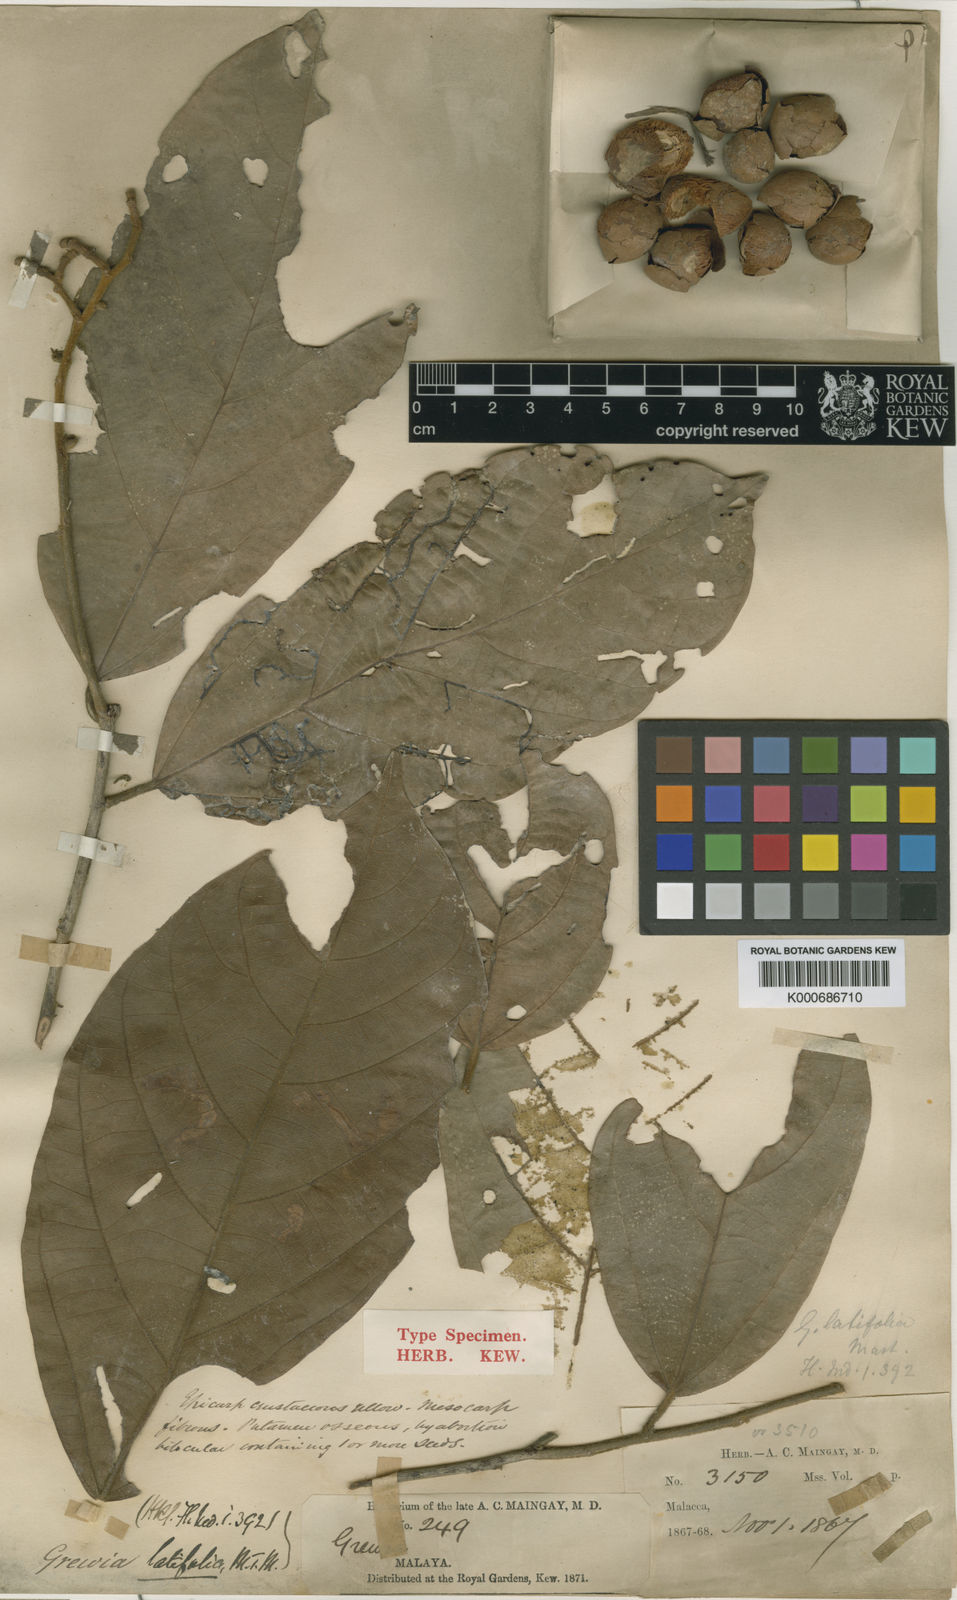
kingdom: Plantae
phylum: Tracheophyta
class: Magnoliopsida
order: Malvales
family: Malvaceae
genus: Microcos
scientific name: Microcos latifolia
